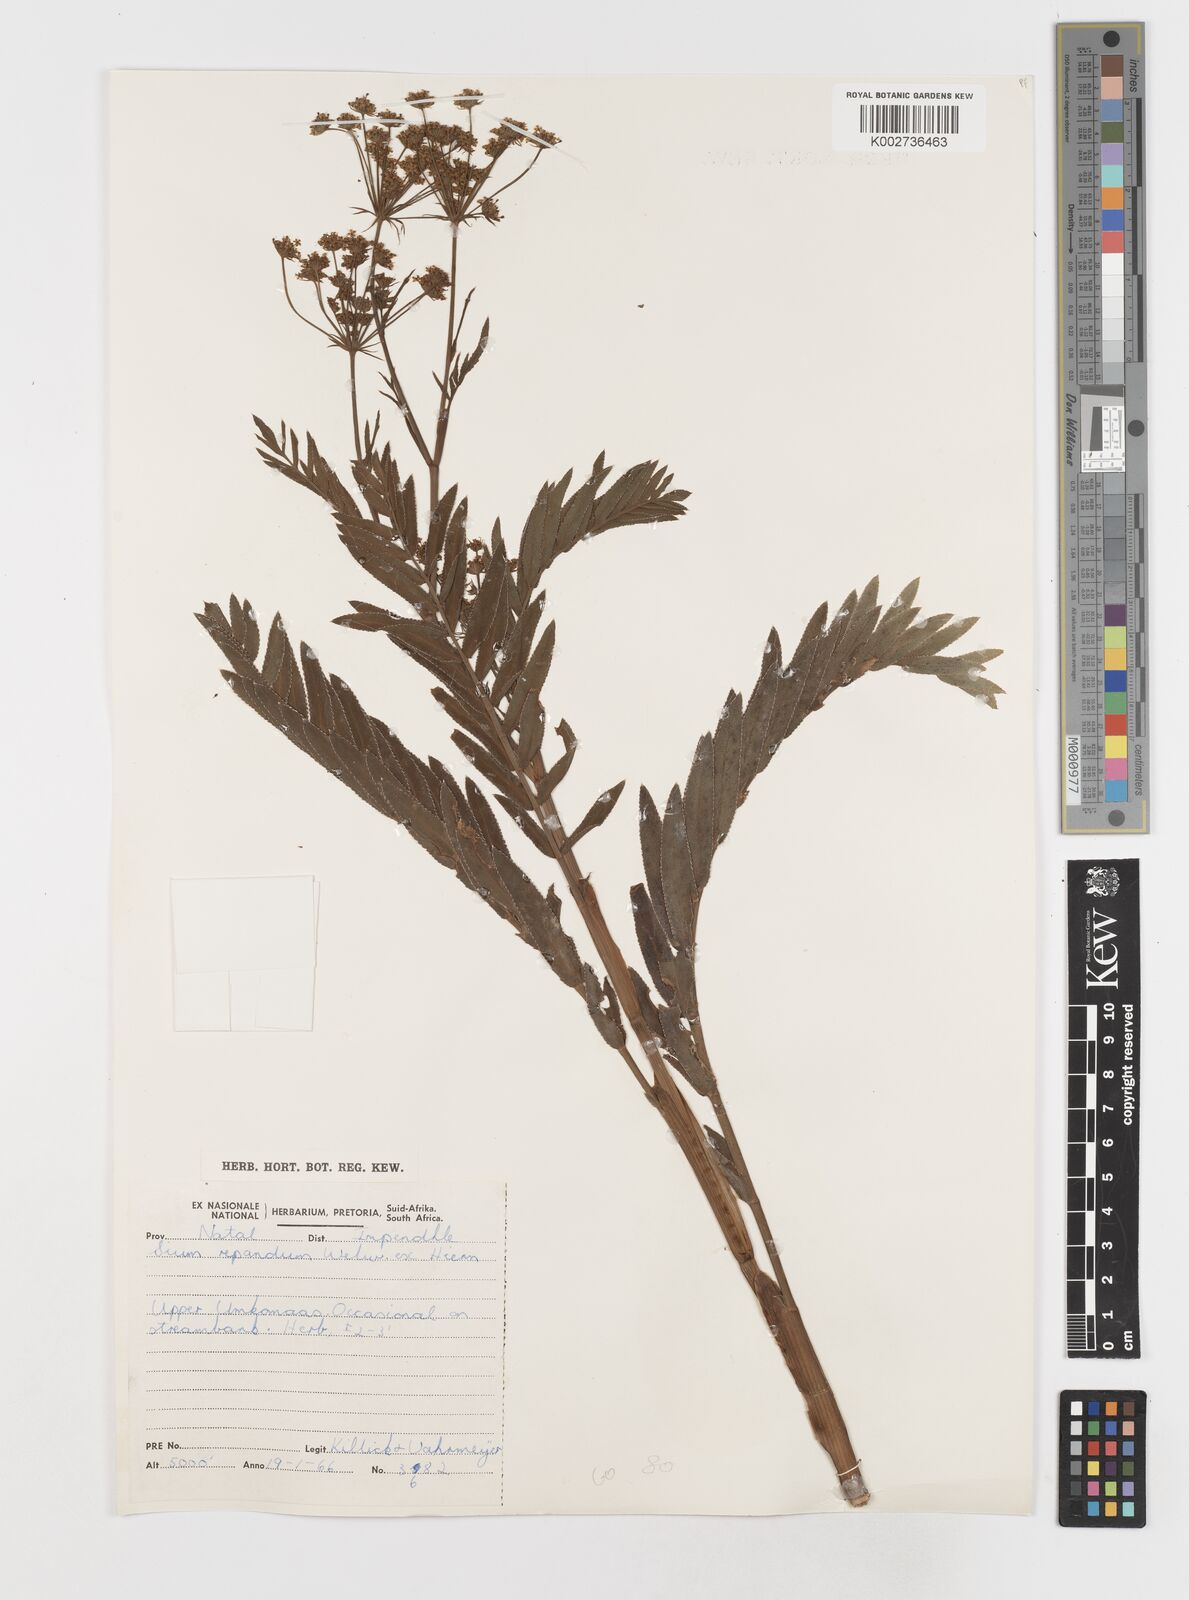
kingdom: Plantae
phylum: Tracheophyta
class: Magnoliopsida
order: Apiales
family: Apiaceae
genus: Berula
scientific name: Berula repanda
